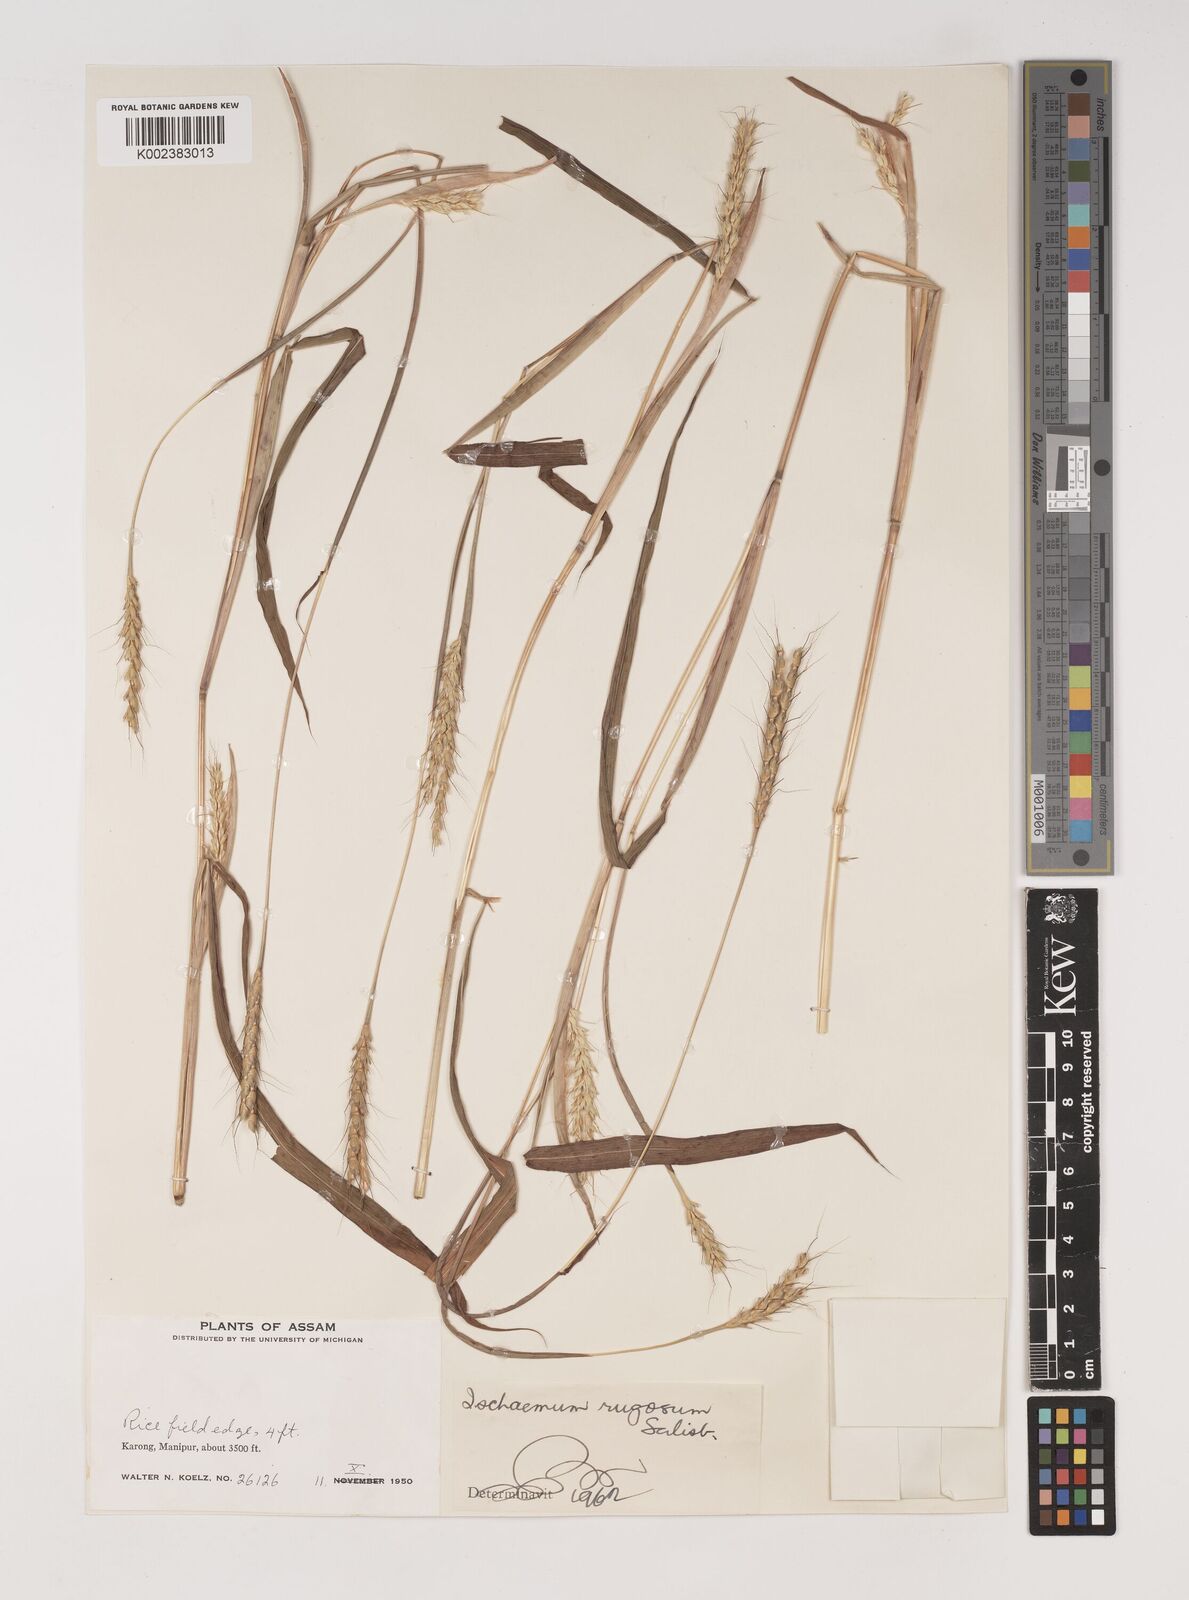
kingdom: Plantae
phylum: Tracheophyta
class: Liliopsida
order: Poales
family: Poaceae
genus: Ischaemum
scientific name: Ischaemum rugosum
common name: Saramatta grass
